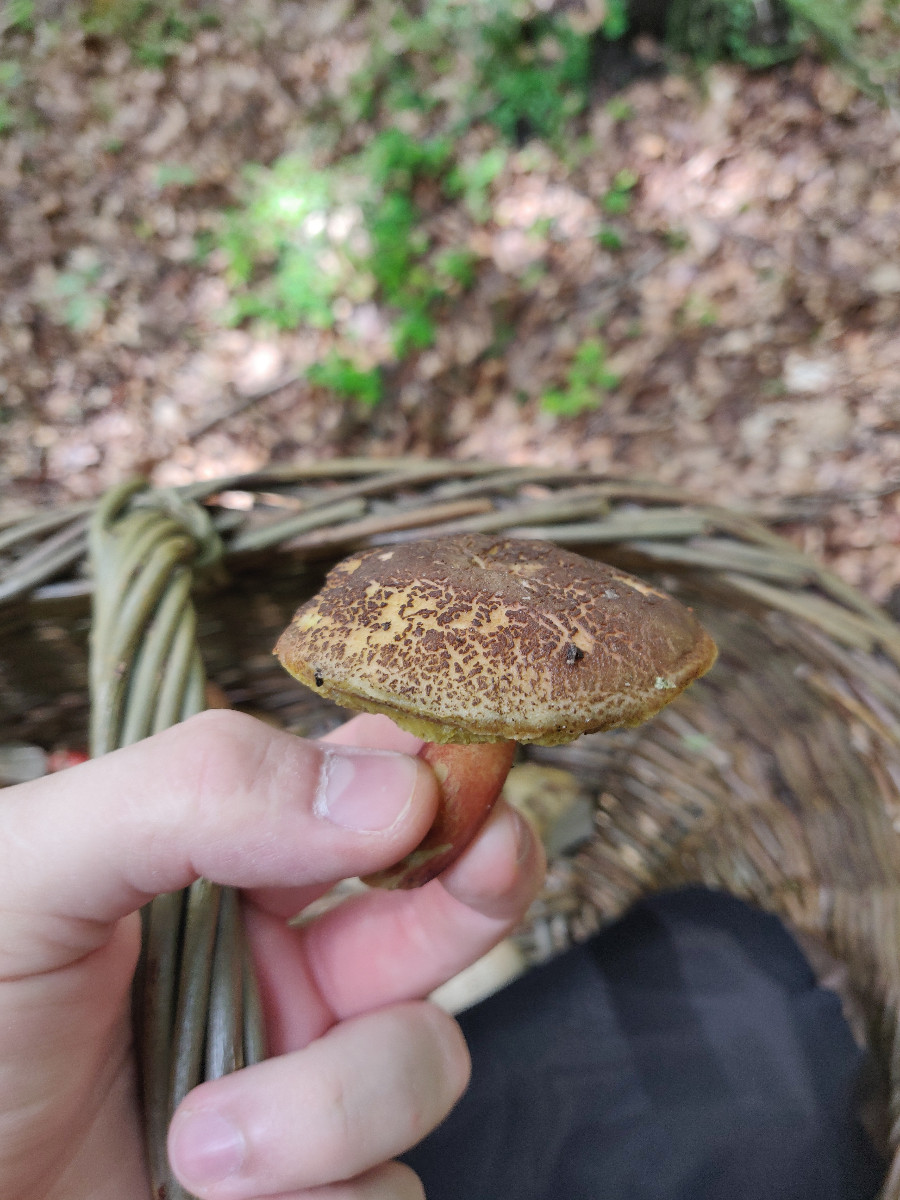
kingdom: Fungi
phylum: Basidiomycota
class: Agaricomycetes
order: Boletales
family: Boletaceae
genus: Xerocomellus
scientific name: Xerocomellus chrysenteron
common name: rødsprukken rørhat
